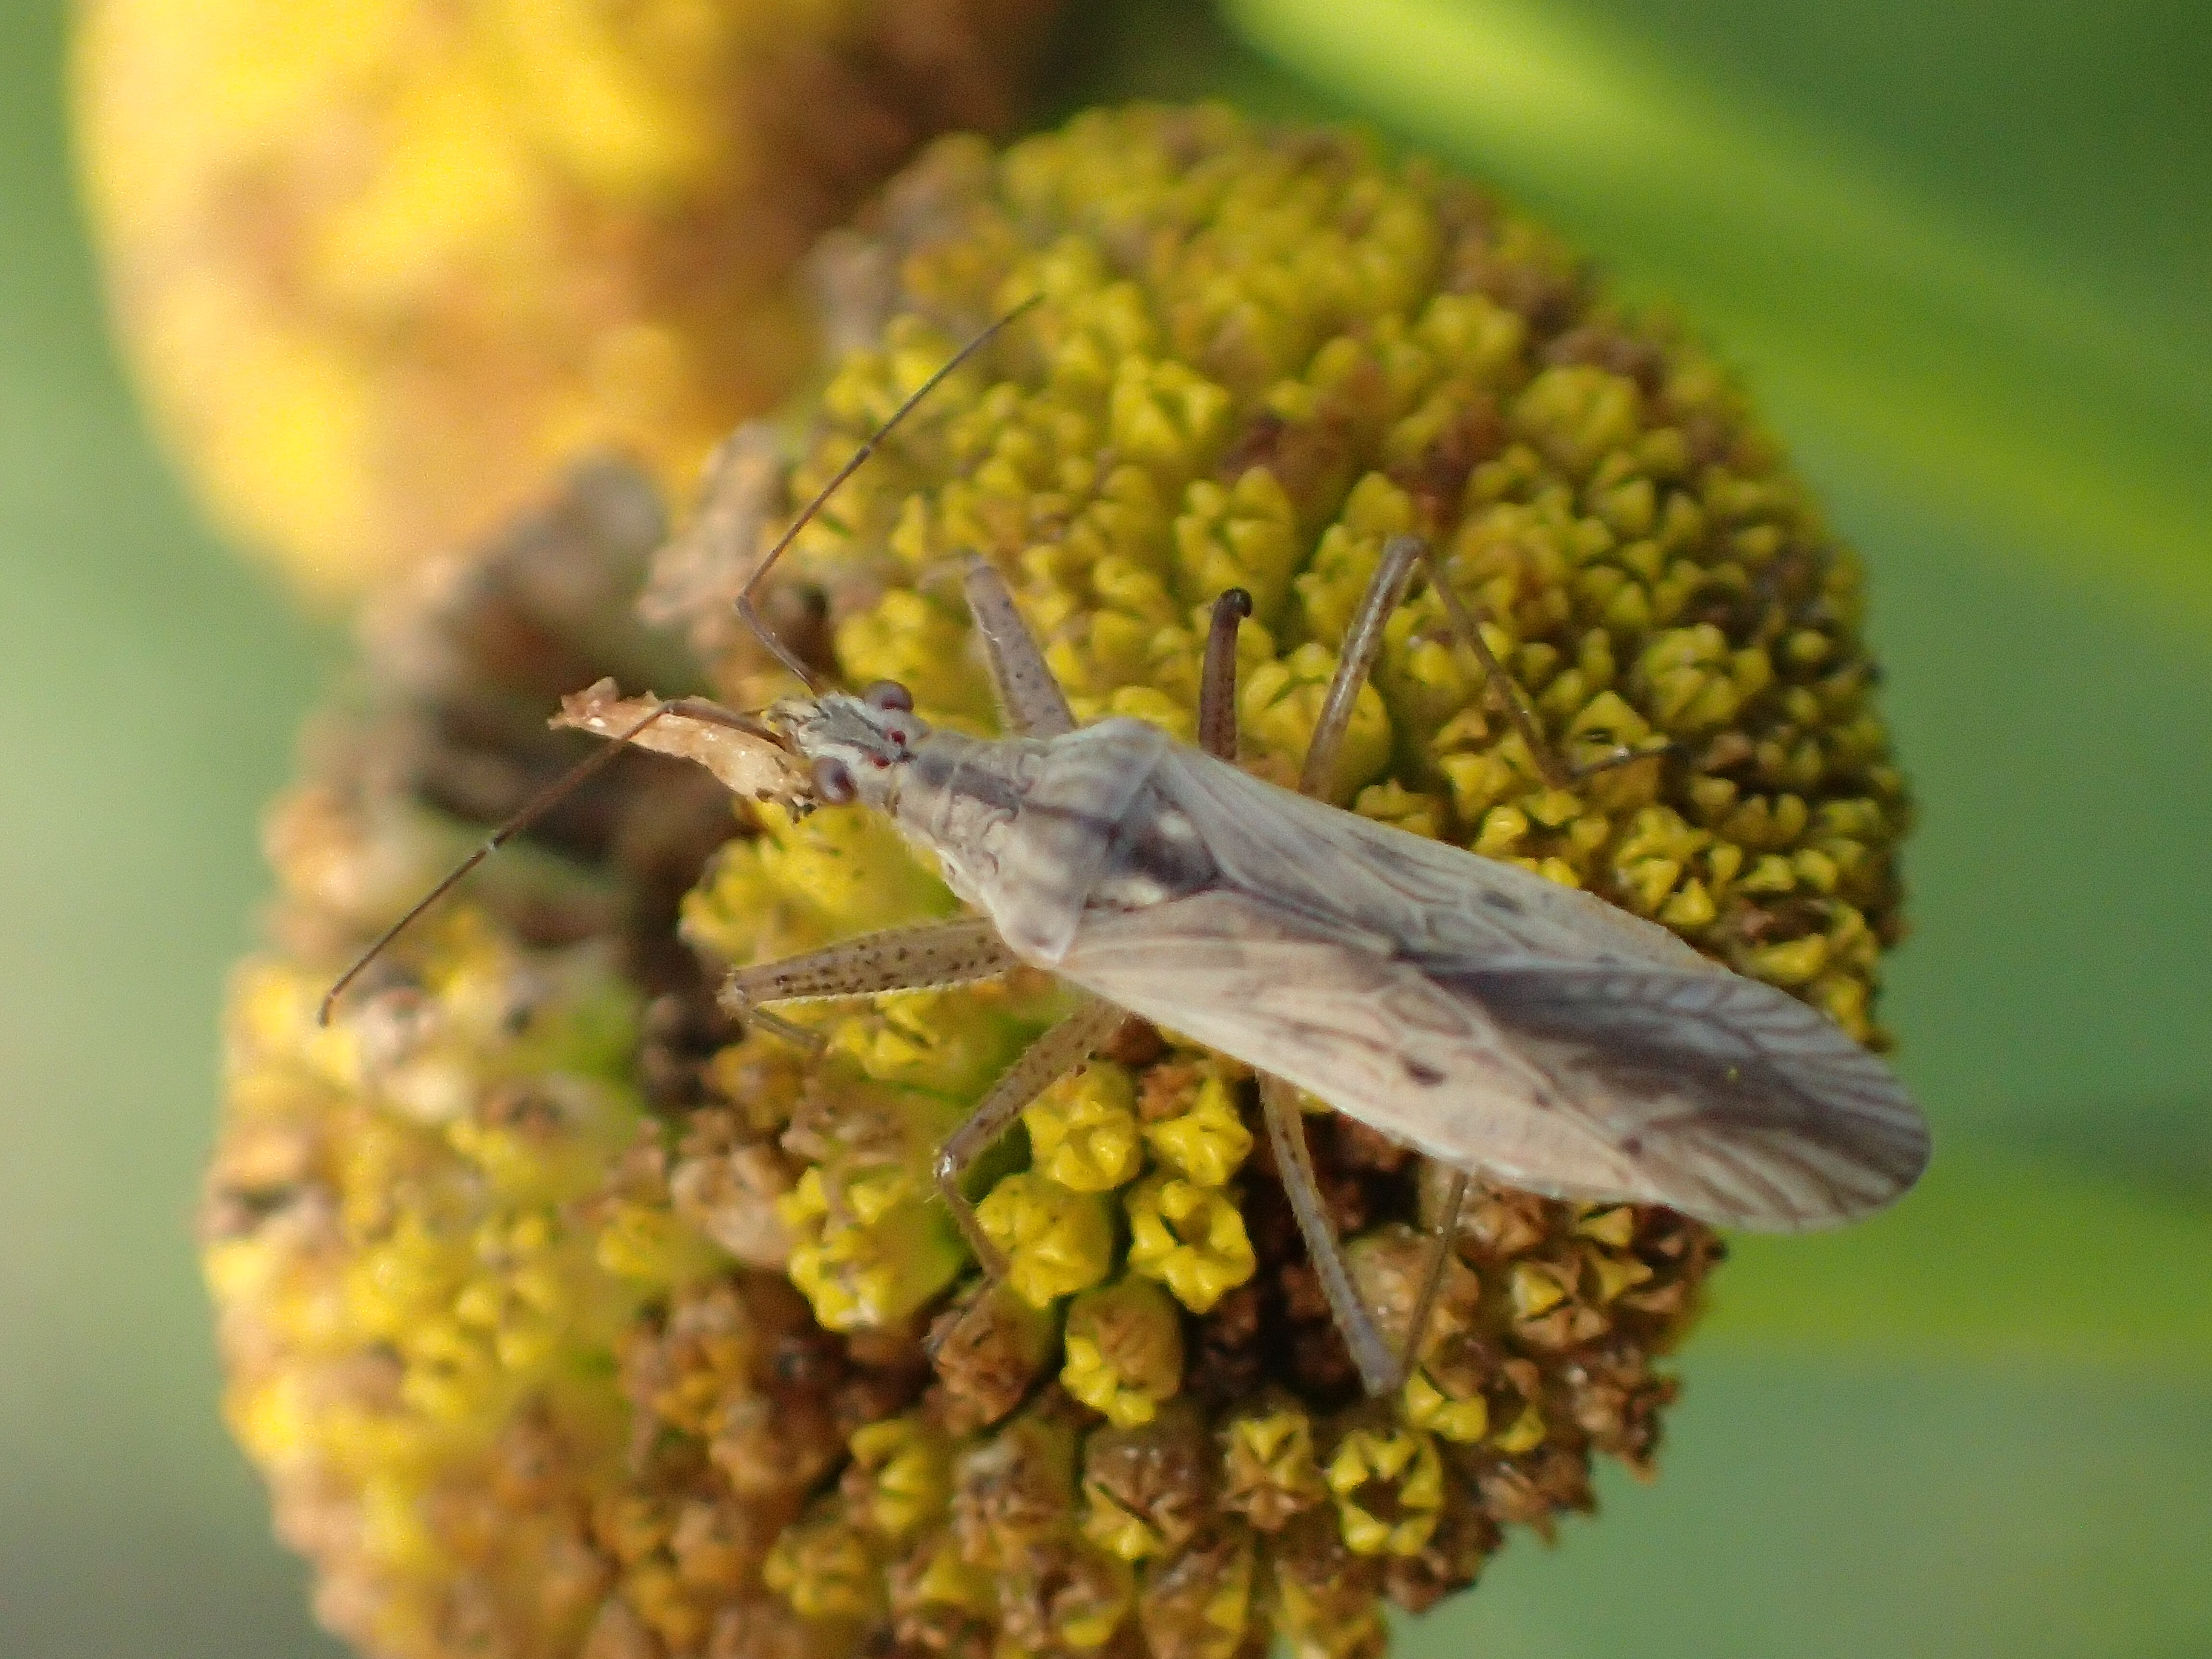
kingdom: Animalia
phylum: Arthropoda
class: Insecta
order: Hemiptera
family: Nabidae
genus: Nabis
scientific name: Nabis ferus
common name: Field damsel bug
